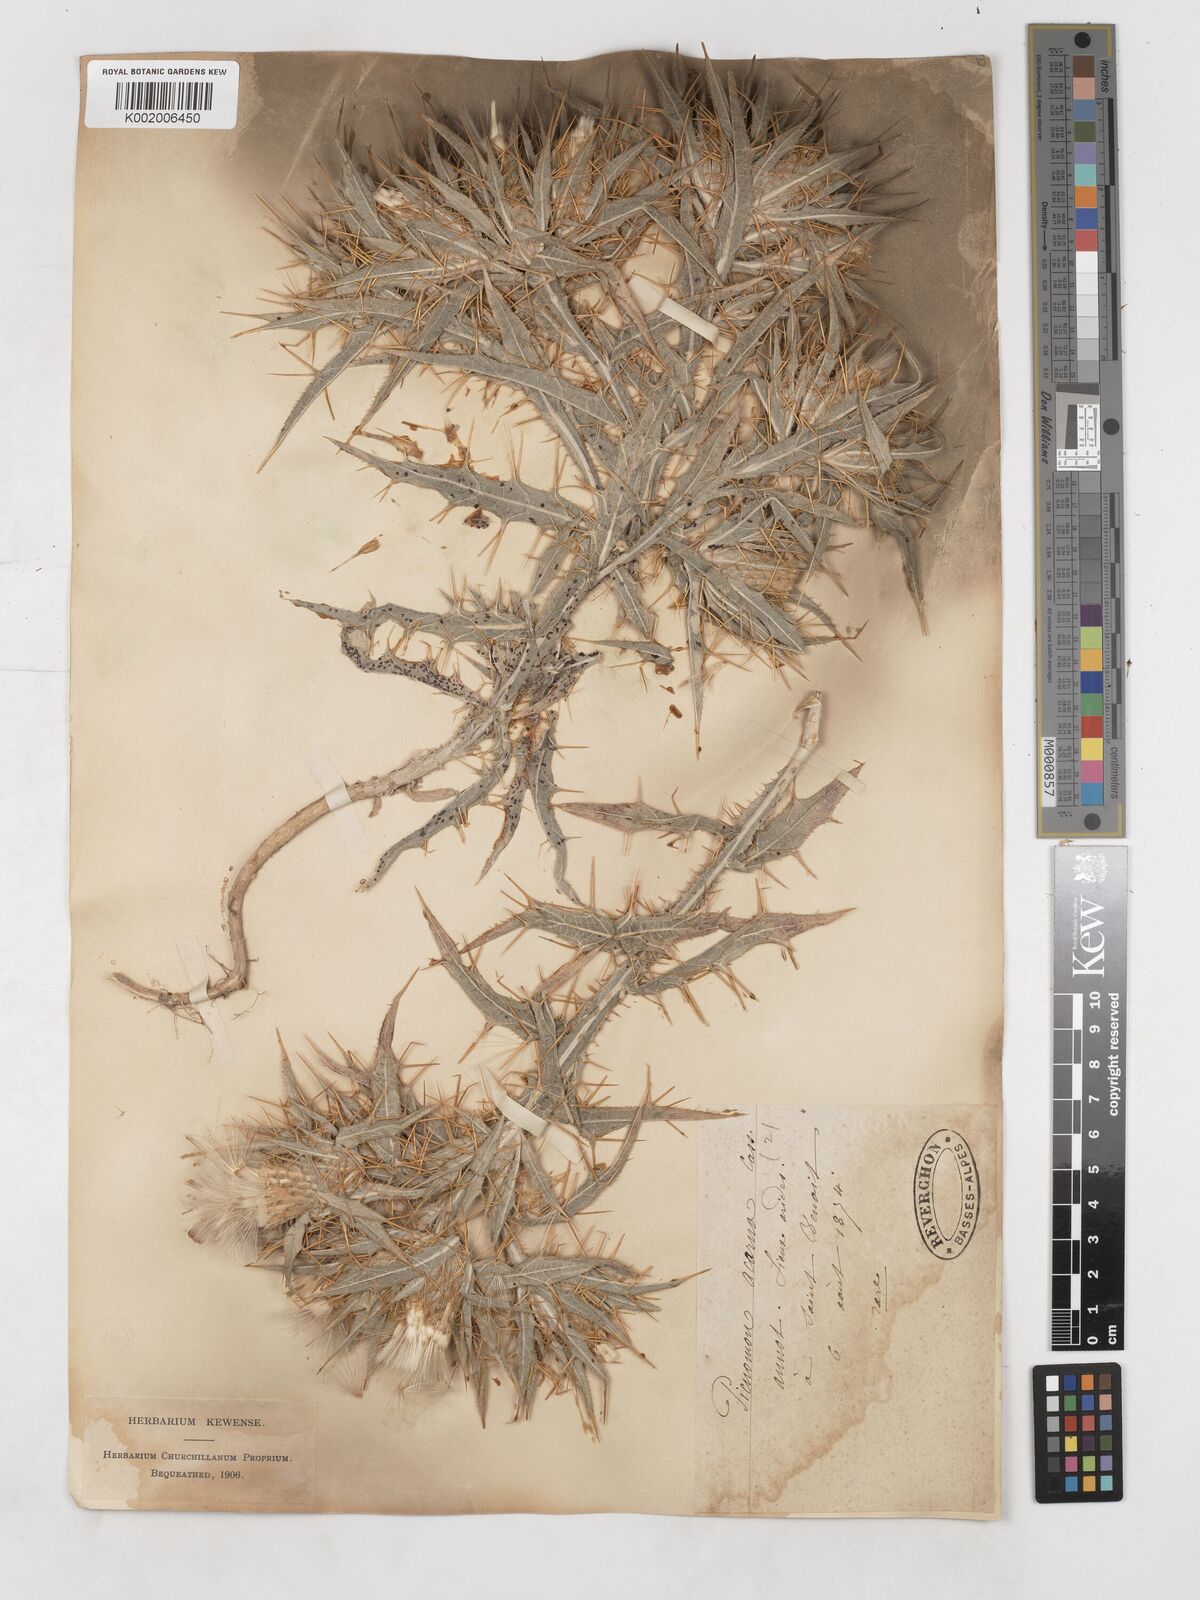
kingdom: Plantae
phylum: Tracheophyta
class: Magnoliopsida
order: Asterales
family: Asteraceae
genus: Picnomon
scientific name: Picnomon acarna
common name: Soldier thistle
